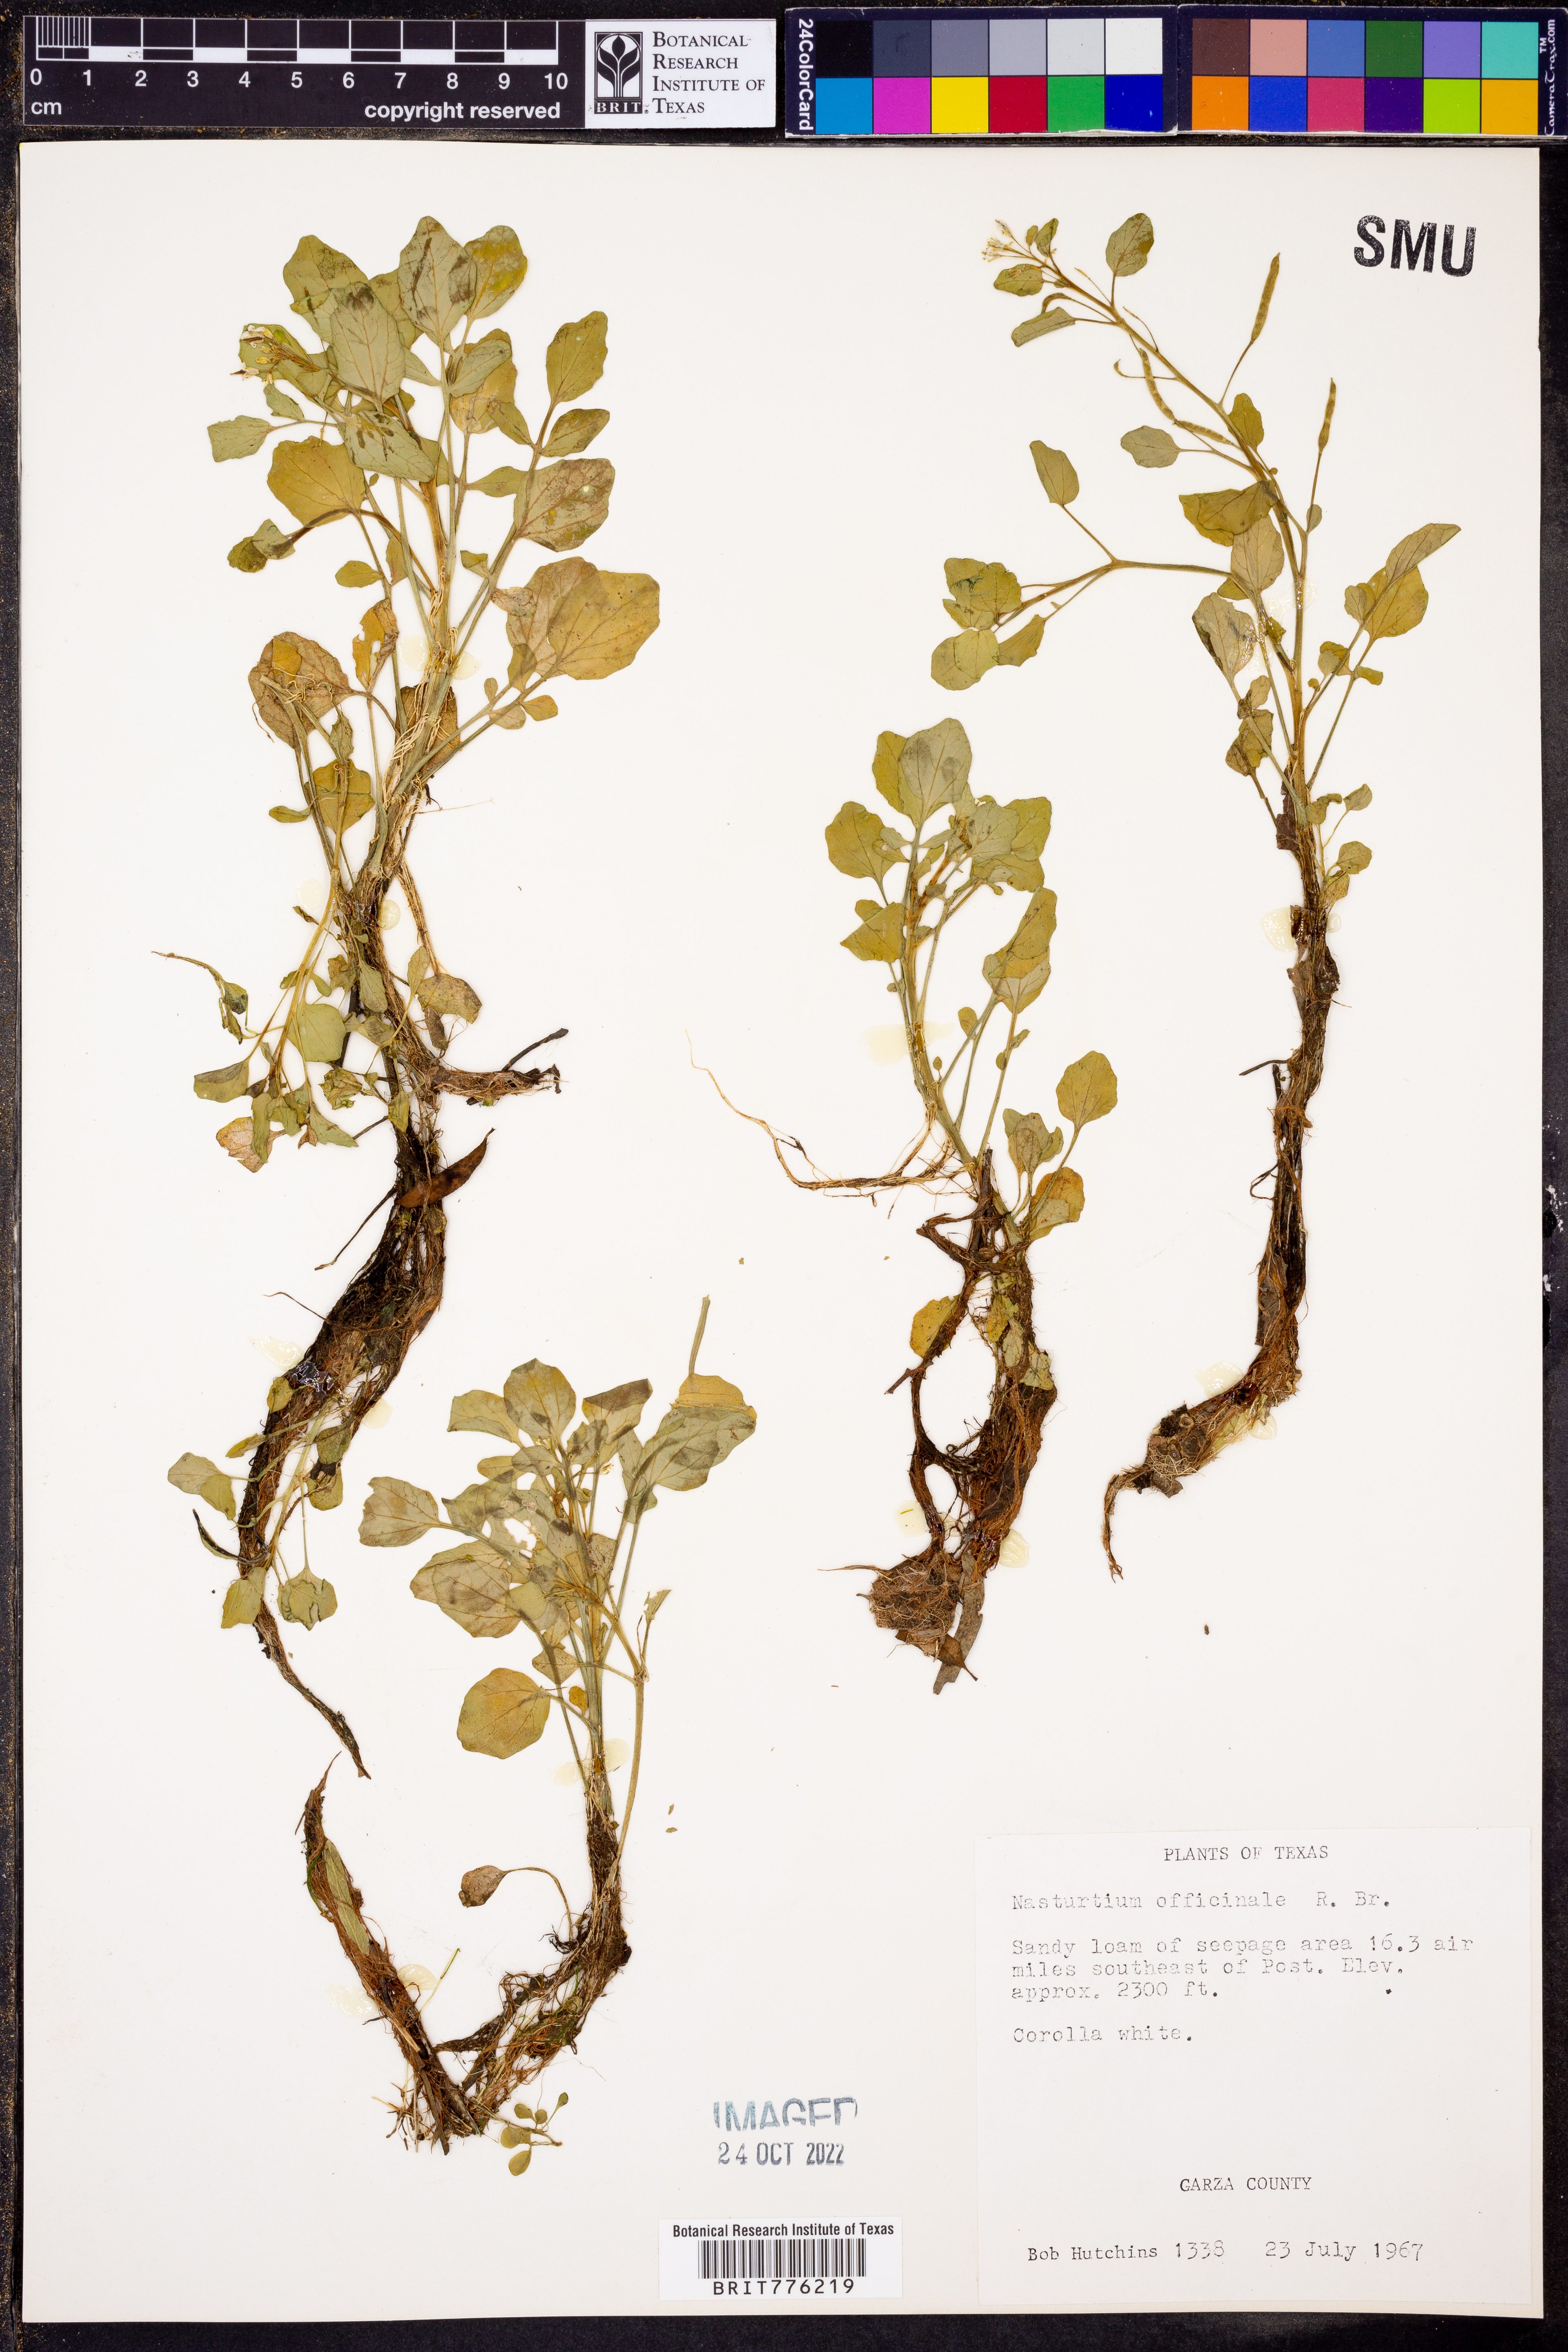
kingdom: Plantae
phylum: Tracheophyta
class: Magnoliopsida
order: Brassicales
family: Brassicaceae
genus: Nasturtium
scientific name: Nasturtium officinale
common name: Watercress
